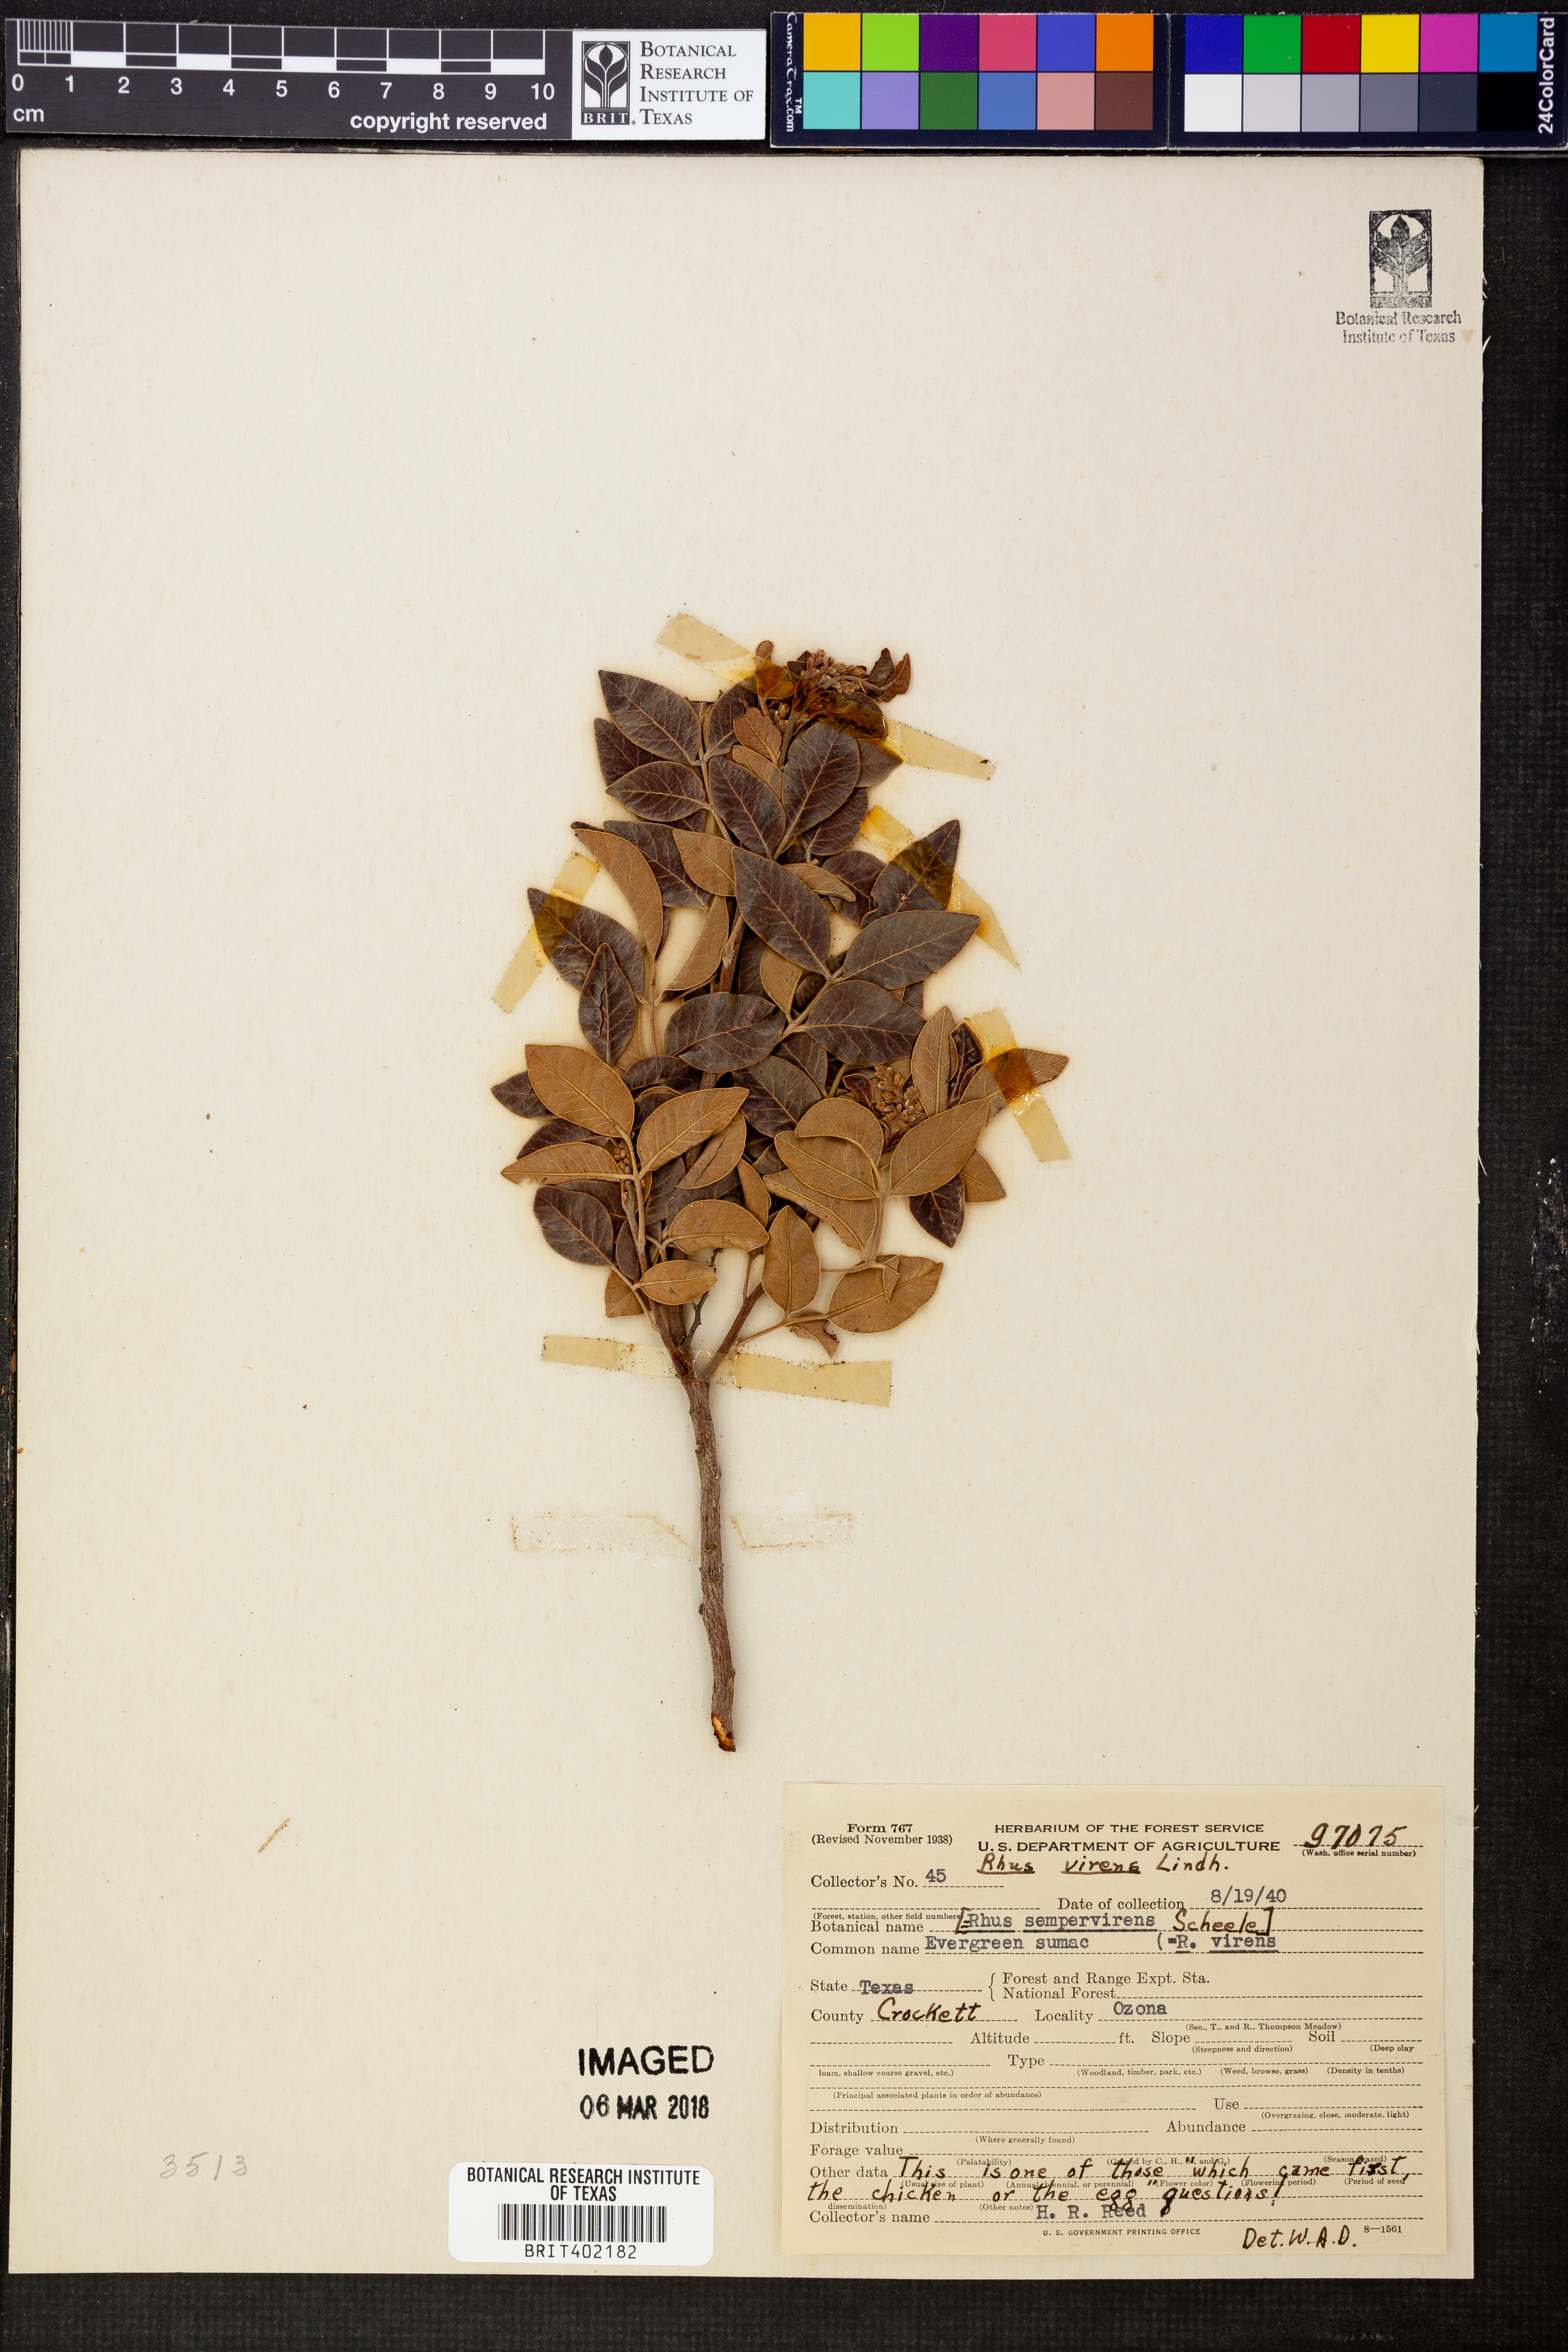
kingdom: Plantae
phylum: Tracheophyta
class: Magnoliopsida
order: Sapindales
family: Anacardiaceae
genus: Rhus
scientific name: Rhus virens
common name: Evergreen sumac
